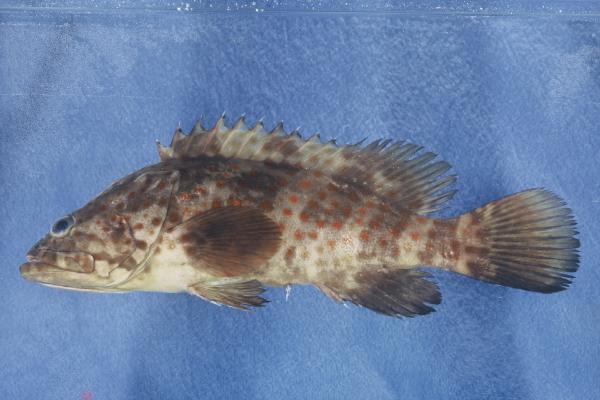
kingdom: Animalia
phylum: Chordata
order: Perciformes
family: Serranidae
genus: Epinephelus
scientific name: Epinephelus coioides
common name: Orange-spotted grouper
